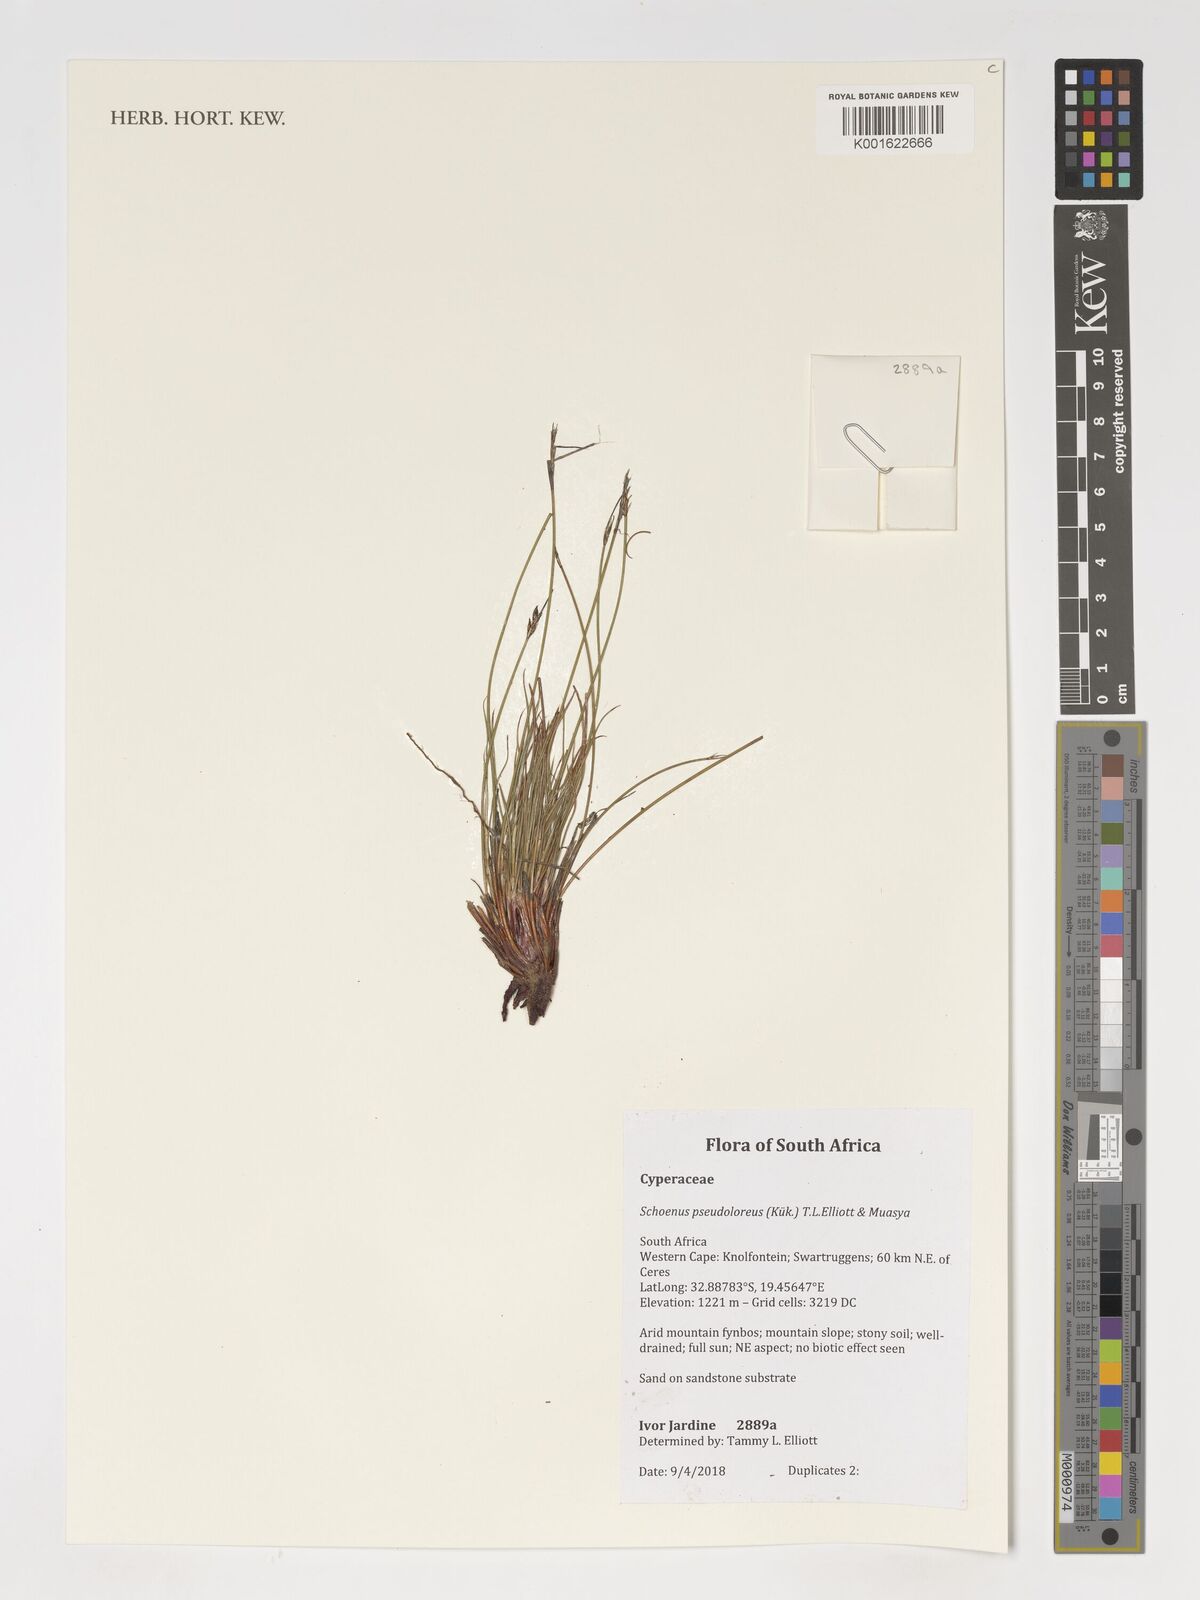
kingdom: Plantae
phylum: Tracheophyta
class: Liliopsida
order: Poales
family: Cyperaceae
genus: Schoenus
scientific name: Schoenus pseudoloreus
